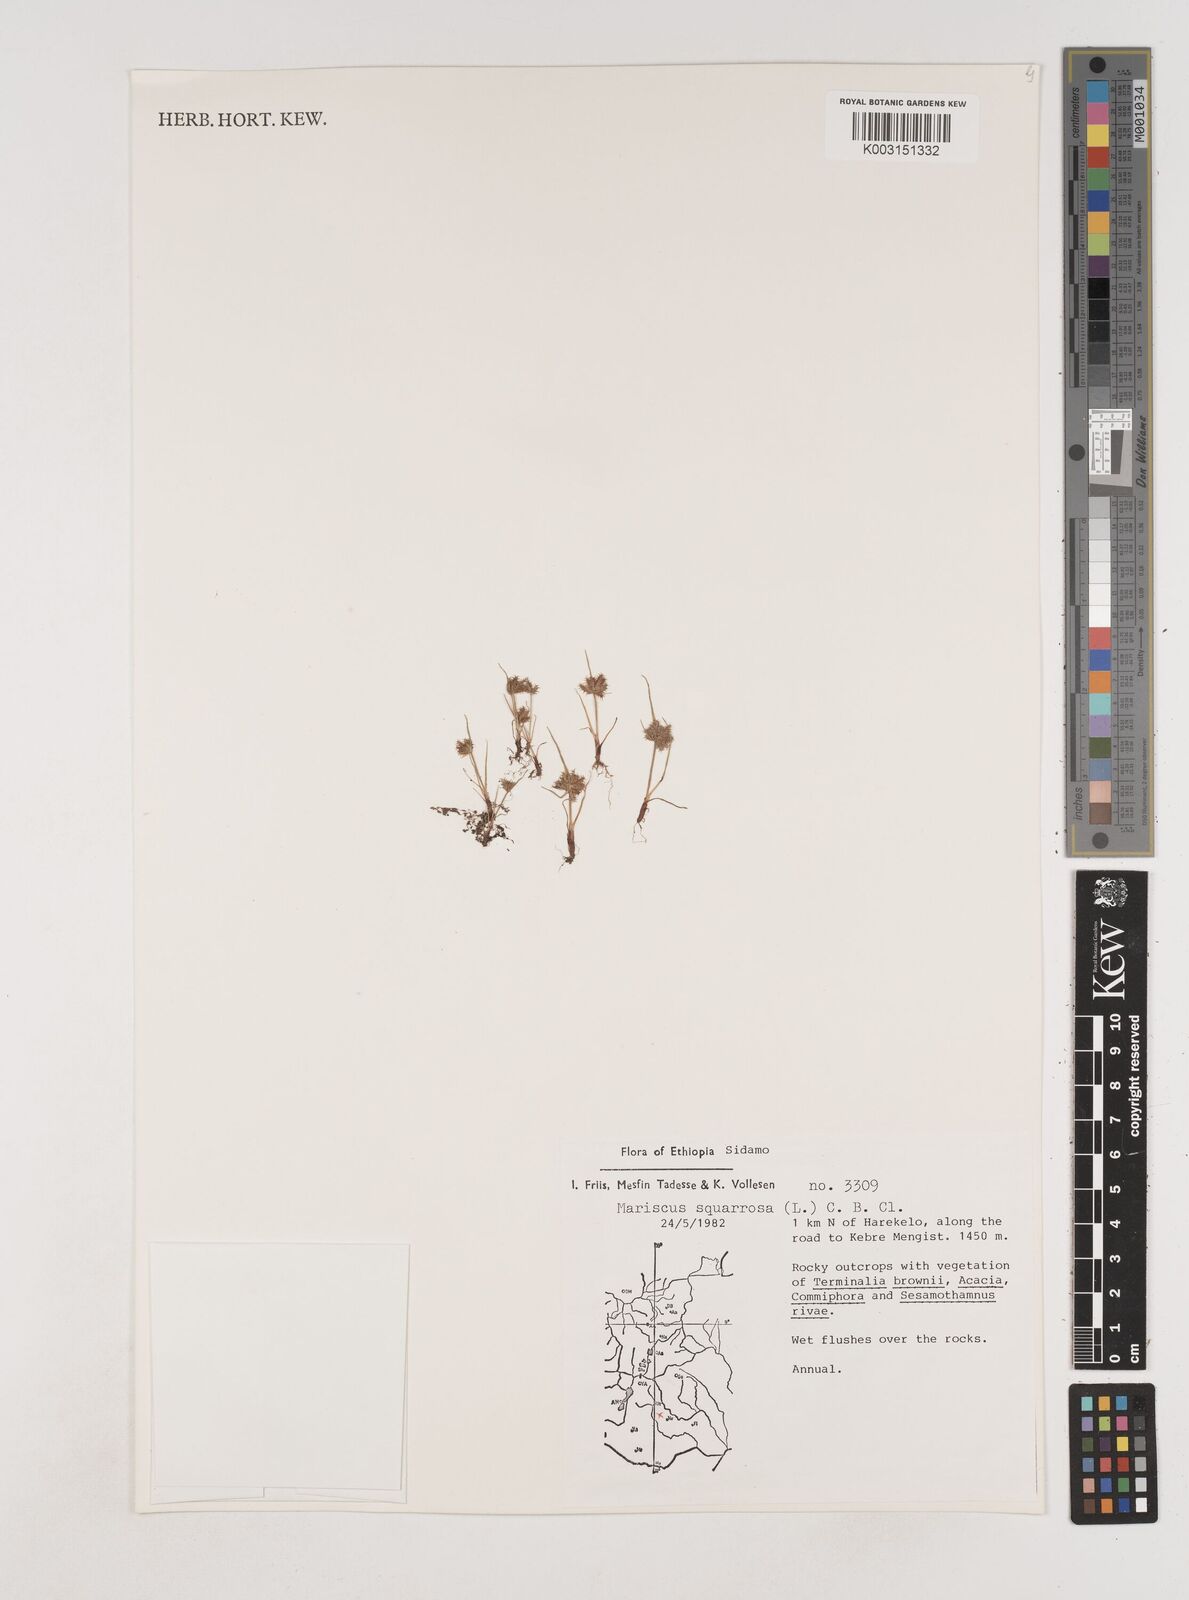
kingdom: Plantae
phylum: Tracheophyta
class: Liliopsida
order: Poales
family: Cyperaceae
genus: Cyperus
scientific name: Cyperus squarrosus
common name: Awned cyperus
